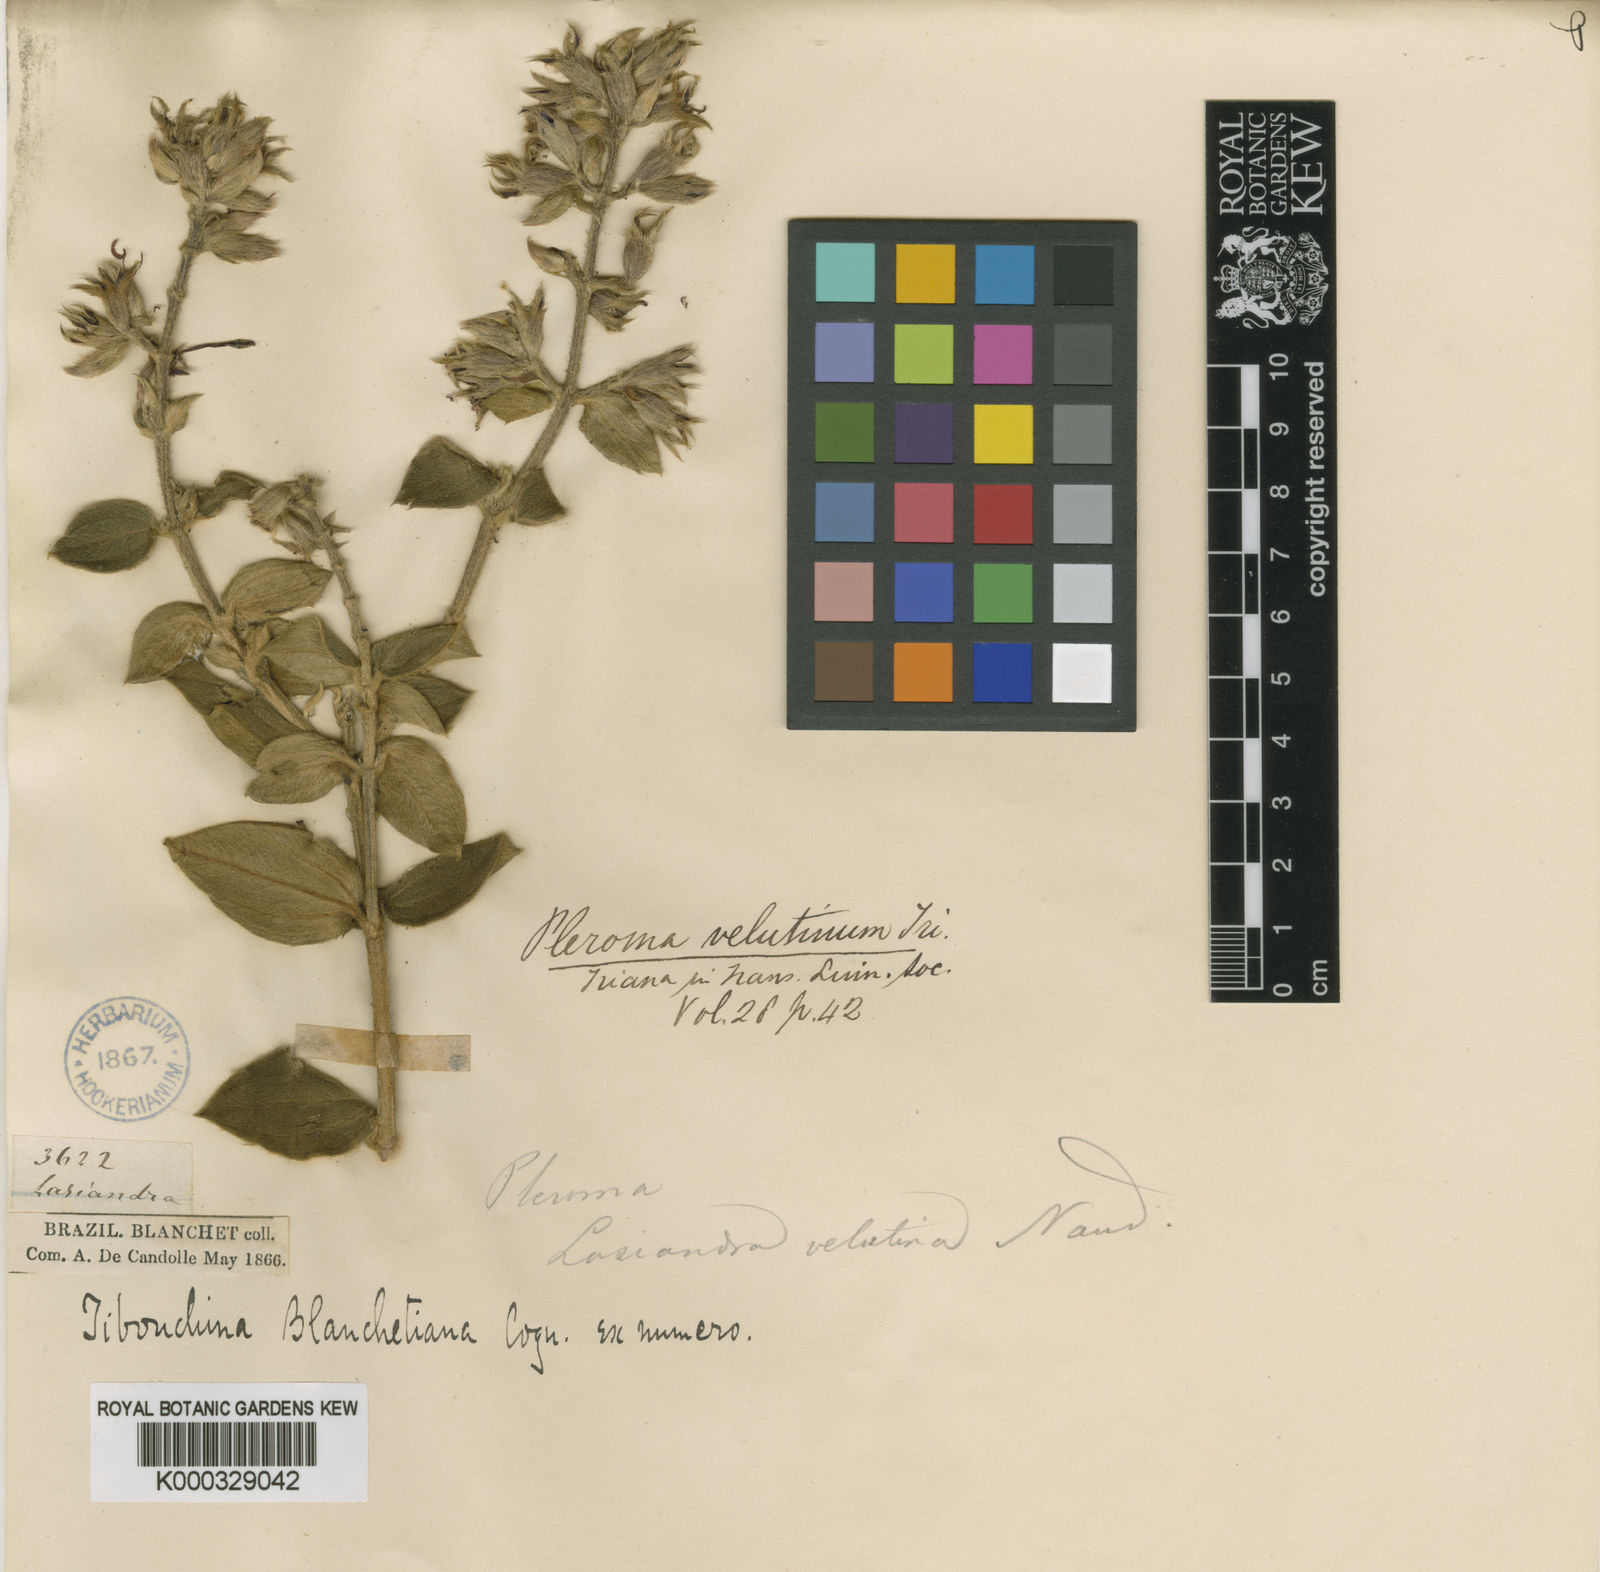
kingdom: Plantae
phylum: Tracheophyta
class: Magnoliopsida
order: Myrtales
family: Melastomataceae
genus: Pleroma
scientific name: Pleroma blanchetianum
